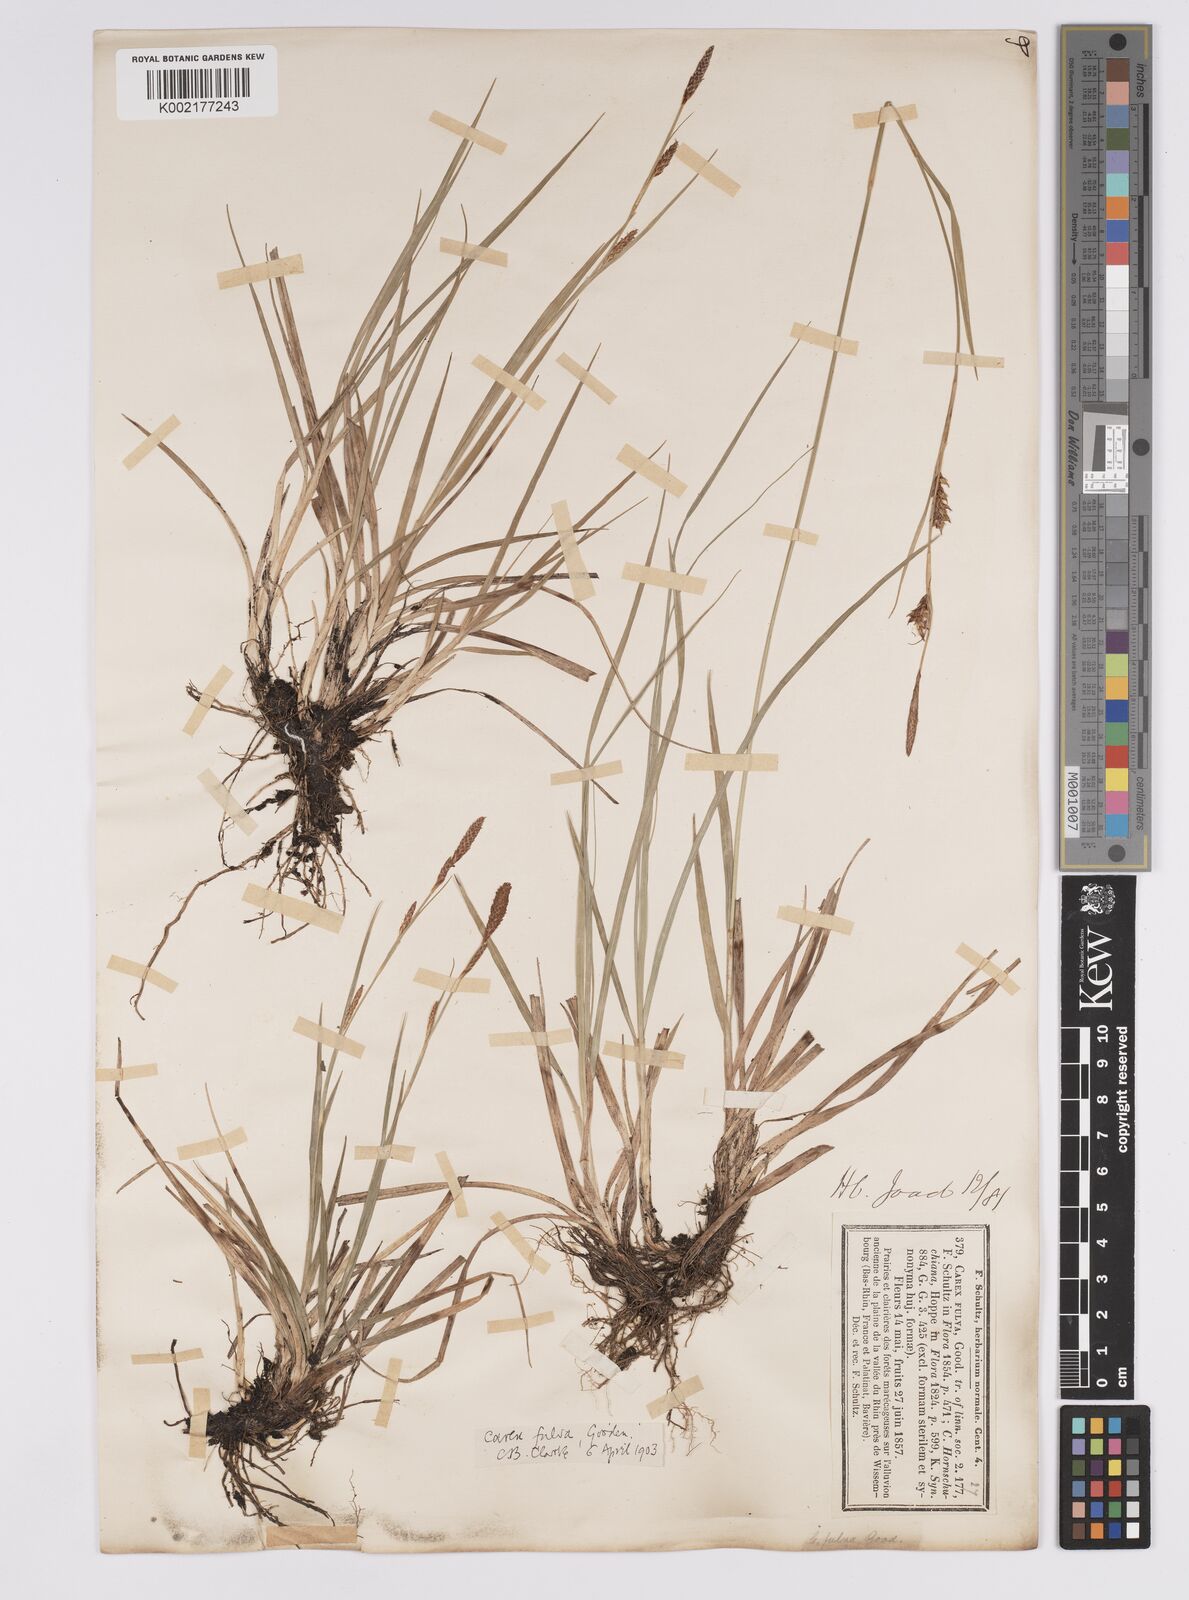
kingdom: Plantae
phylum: Tracheophyta
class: Liliopsida
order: Poales
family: Cyperaceae
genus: Carex
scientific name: Carex hostiana
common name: Tawny sedge
